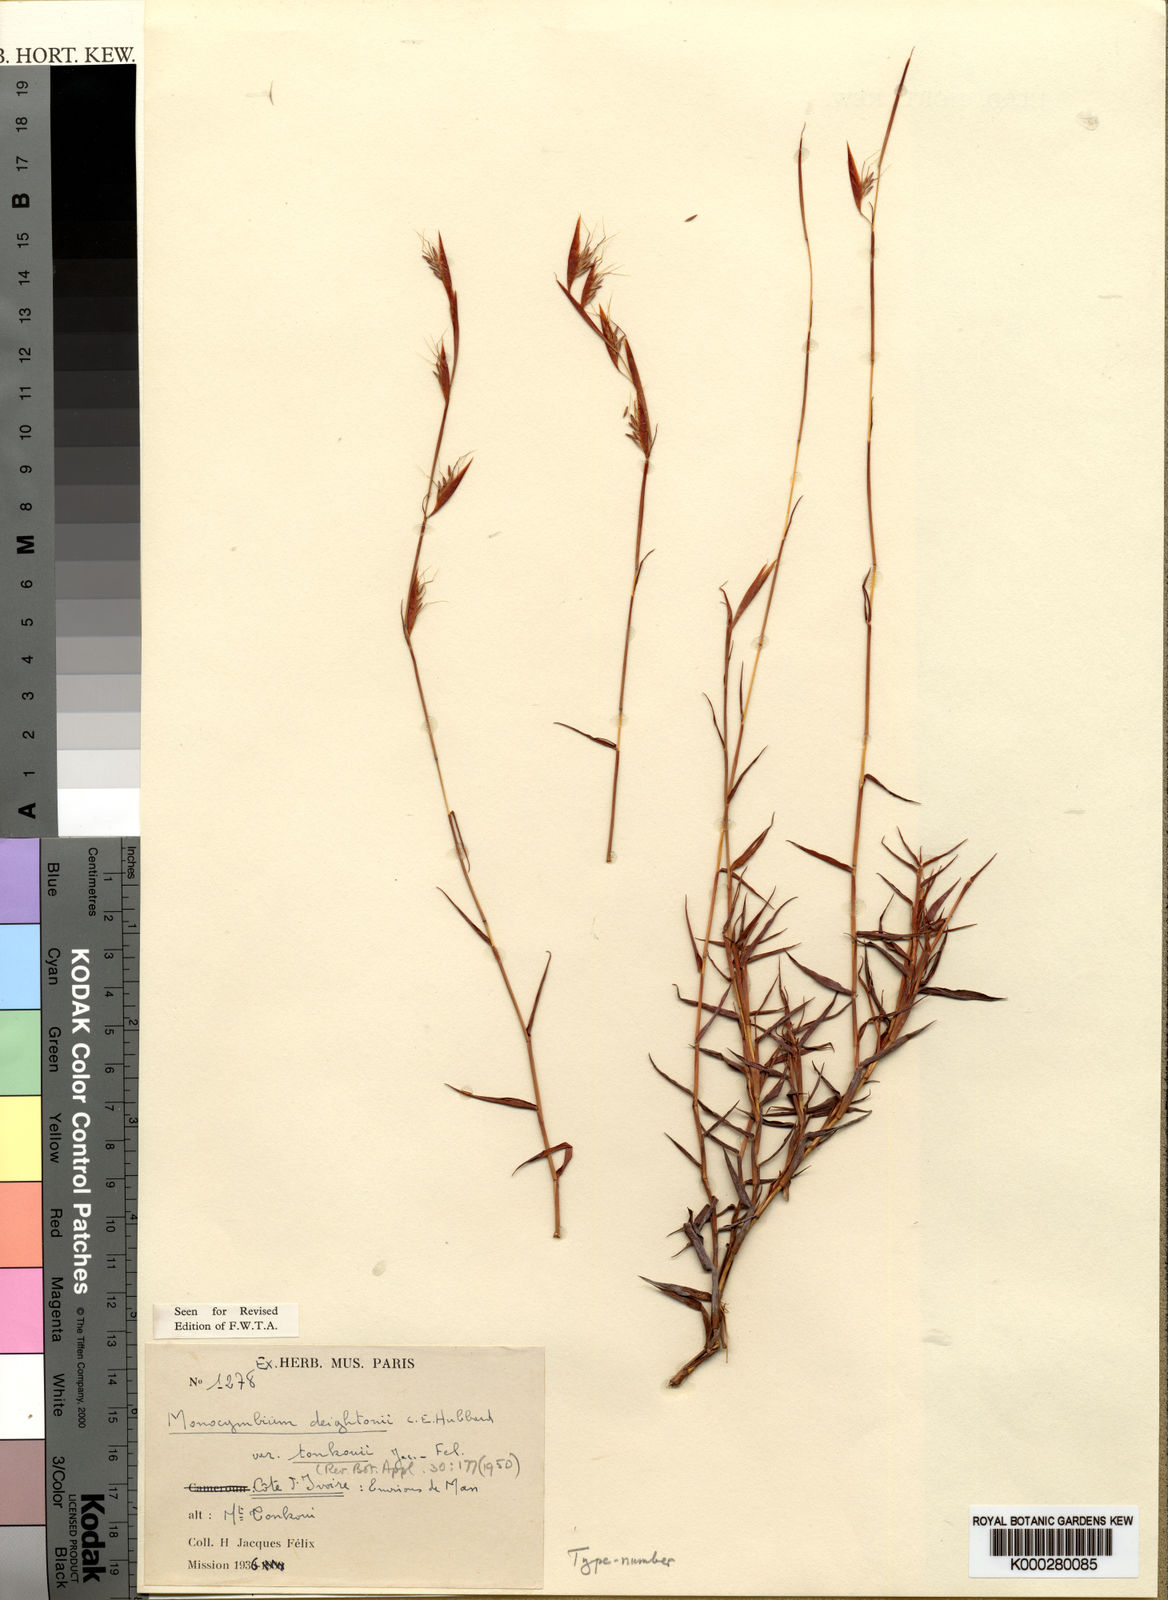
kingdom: Plantae
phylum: Tracheophyta
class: Liliopsida
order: Poales
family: Poaceae
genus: Monocymbium
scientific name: Monocymbium deightonii
